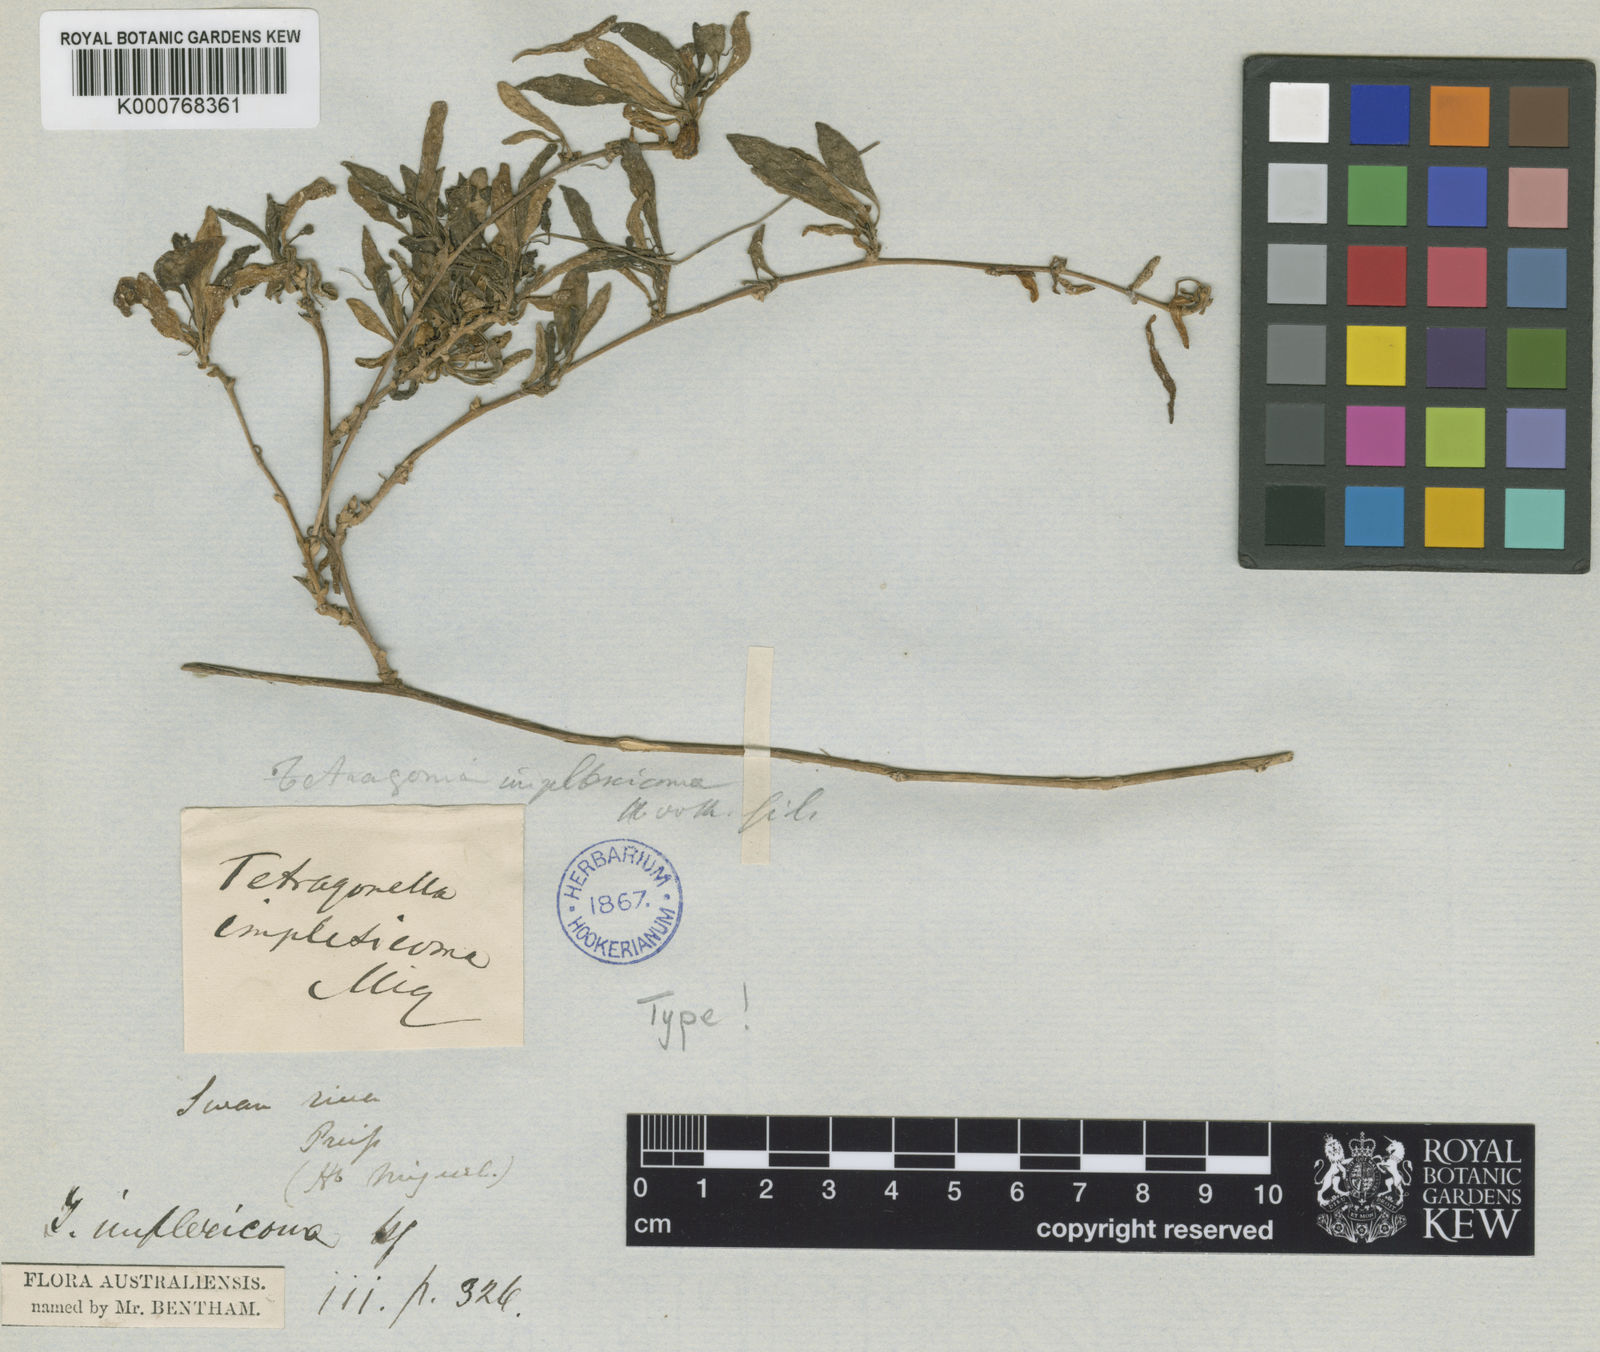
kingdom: Plantae
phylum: Tracheophyta
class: Magnoliopsida
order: Caryophyllales
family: Aizoaceae
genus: Tetragonia
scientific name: Tetragonia implexicoma
